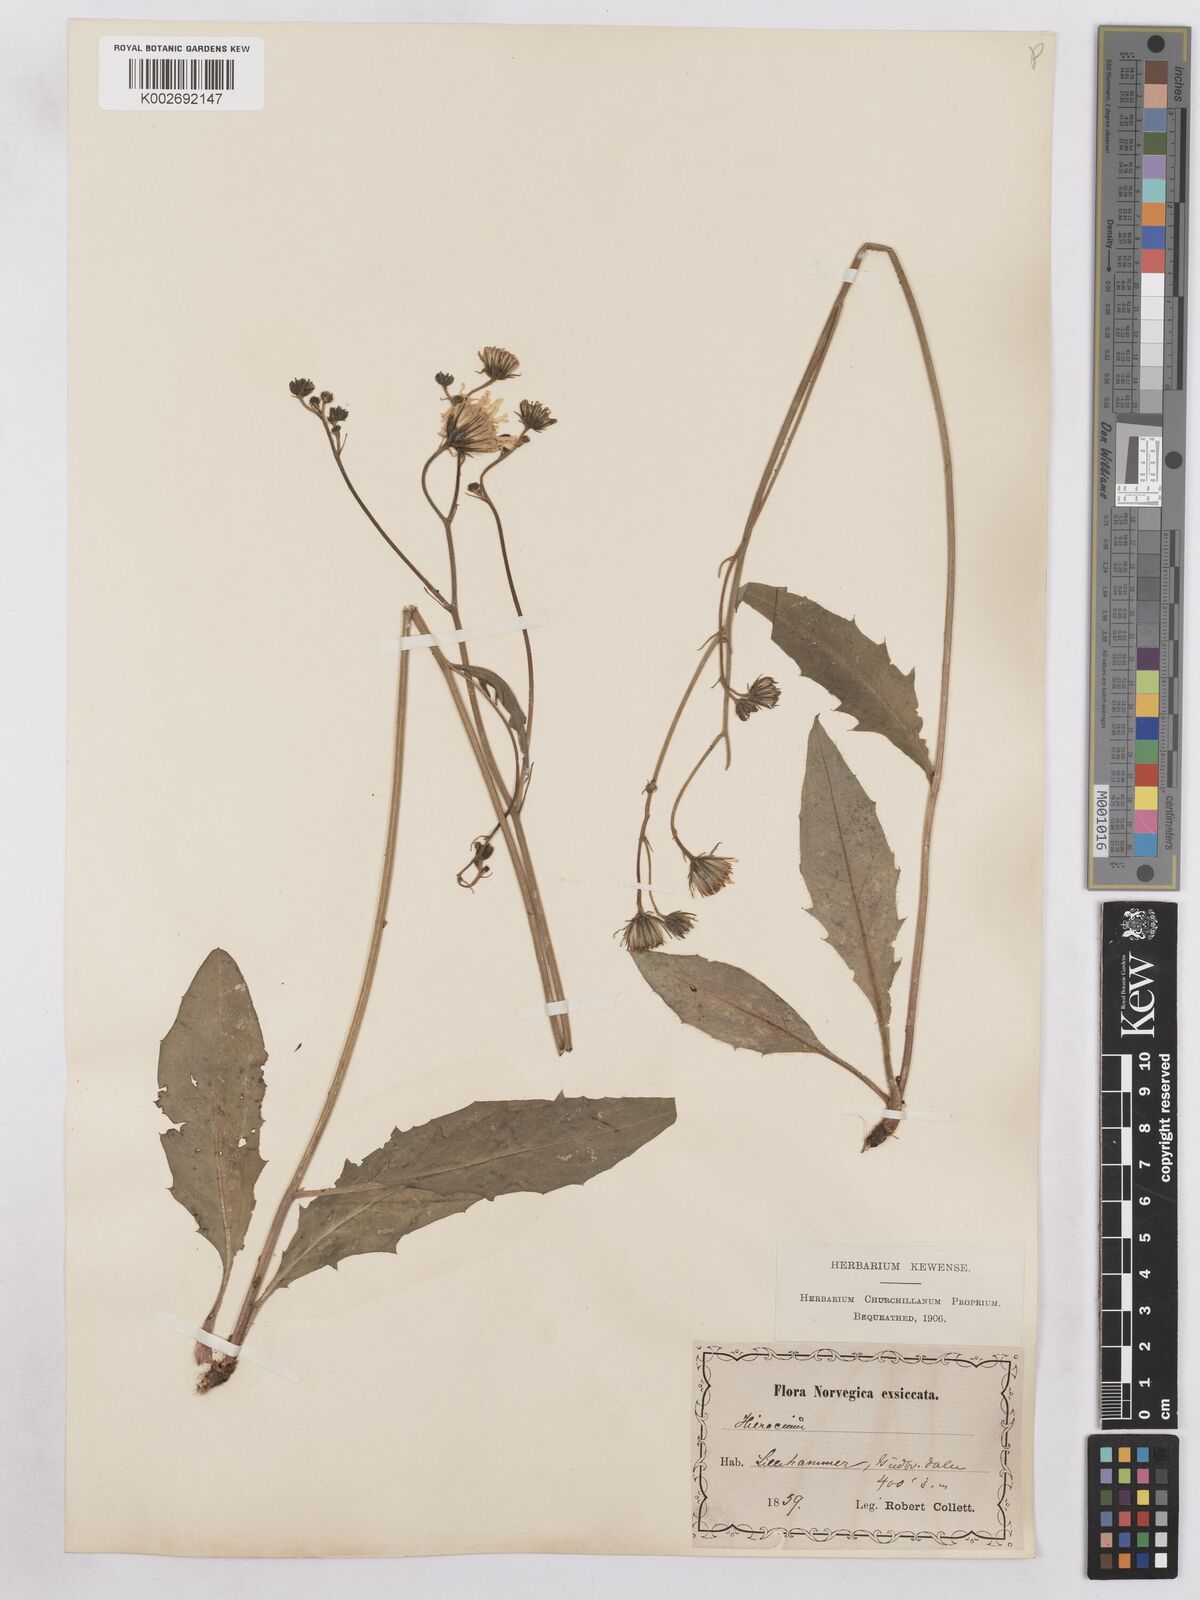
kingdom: Plantae
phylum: Tracheophyta
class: Magnoliopsida
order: Asterales
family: Asteraceae
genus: Hieracium
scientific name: Hieracium diaphanoides
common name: Fine-bracted hawkweed
